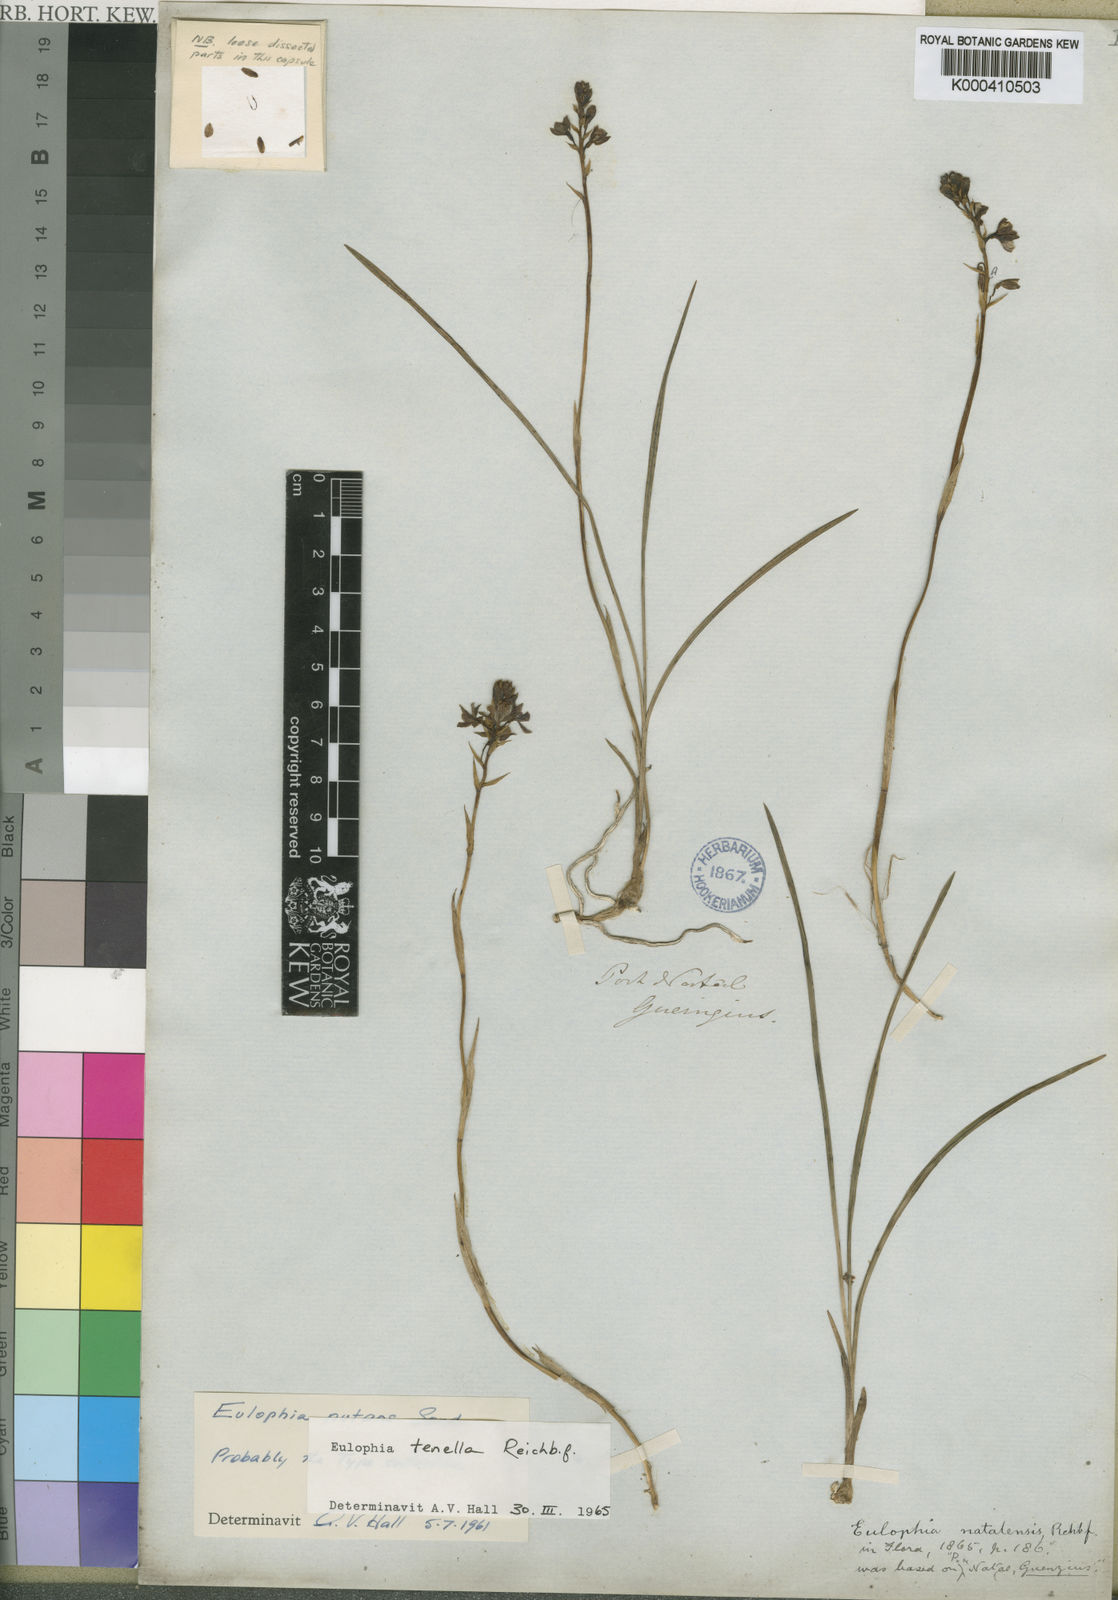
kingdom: Plantae
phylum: Tracheophyta
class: Liliopsida
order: Asparagales
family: Orchidaceae
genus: Eulophia
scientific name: Eulophia tenella
